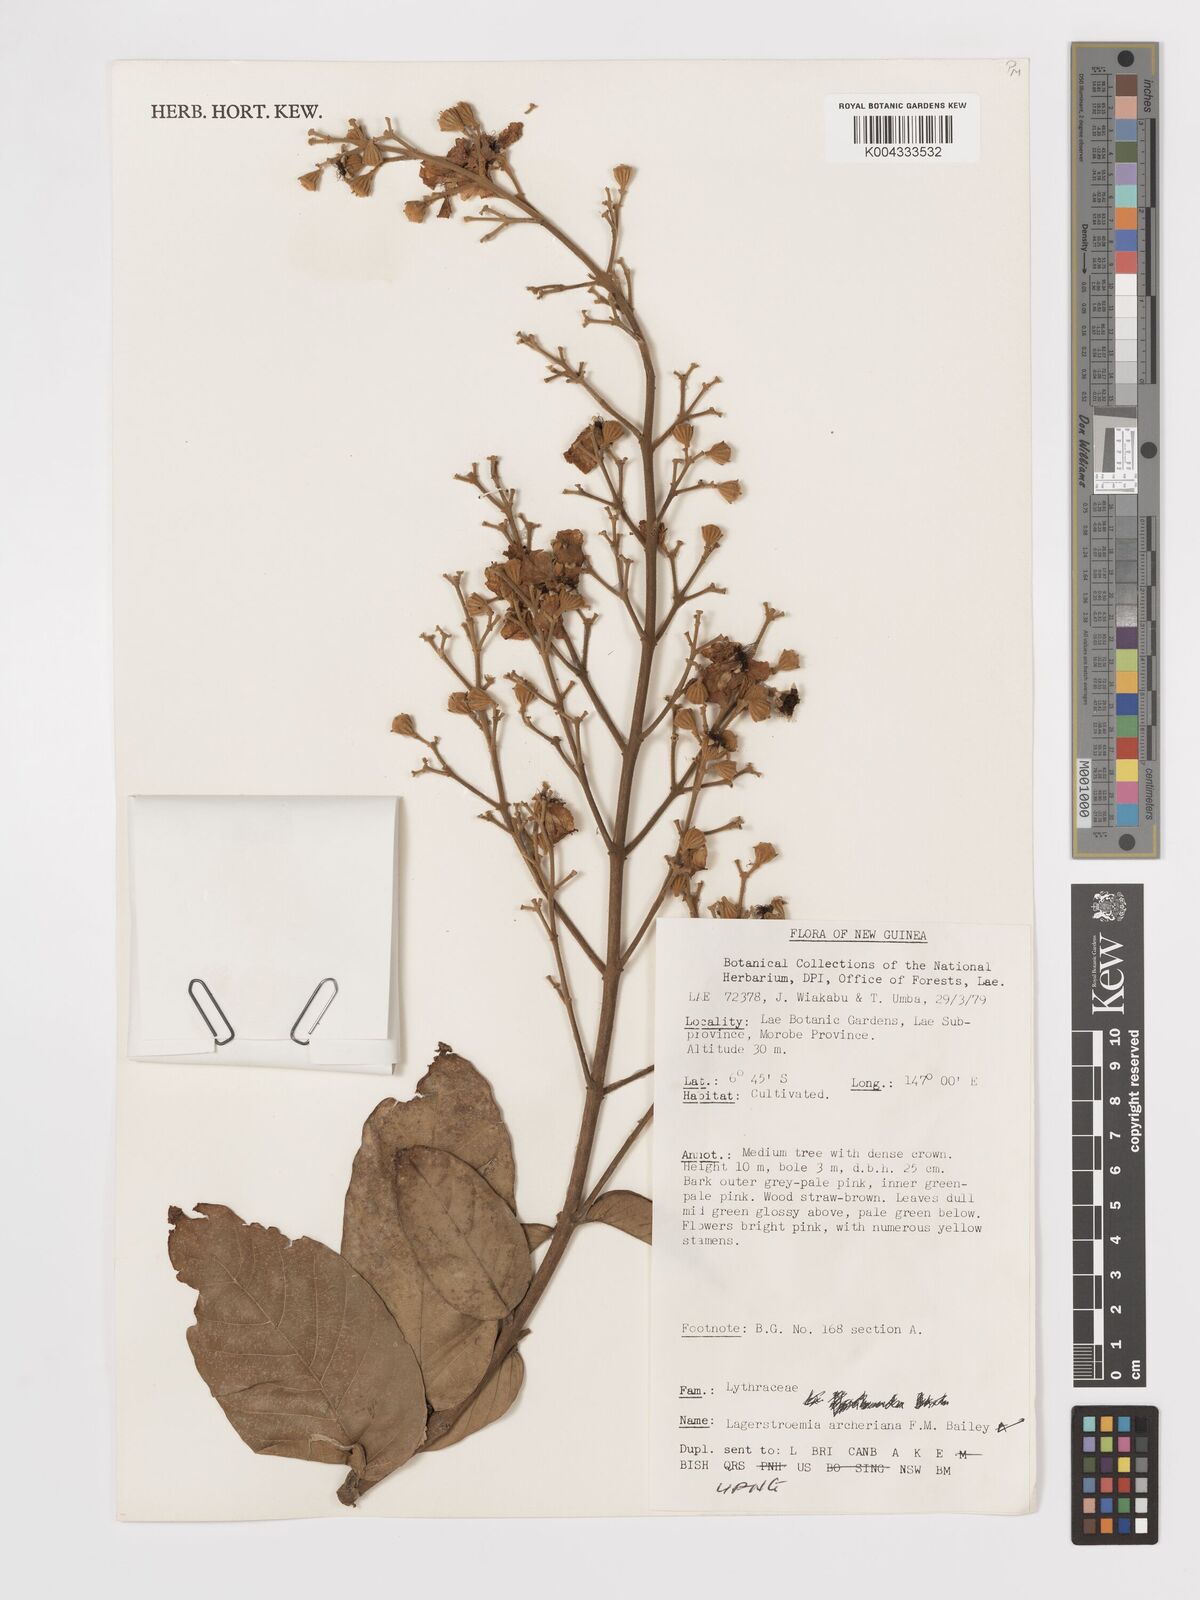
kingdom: Plantae
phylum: Tracheophyta
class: Magnoliopsida
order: Myrtales
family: Lythraceae
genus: Lagerstroemia
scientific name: Lagerstroemia engleriana
